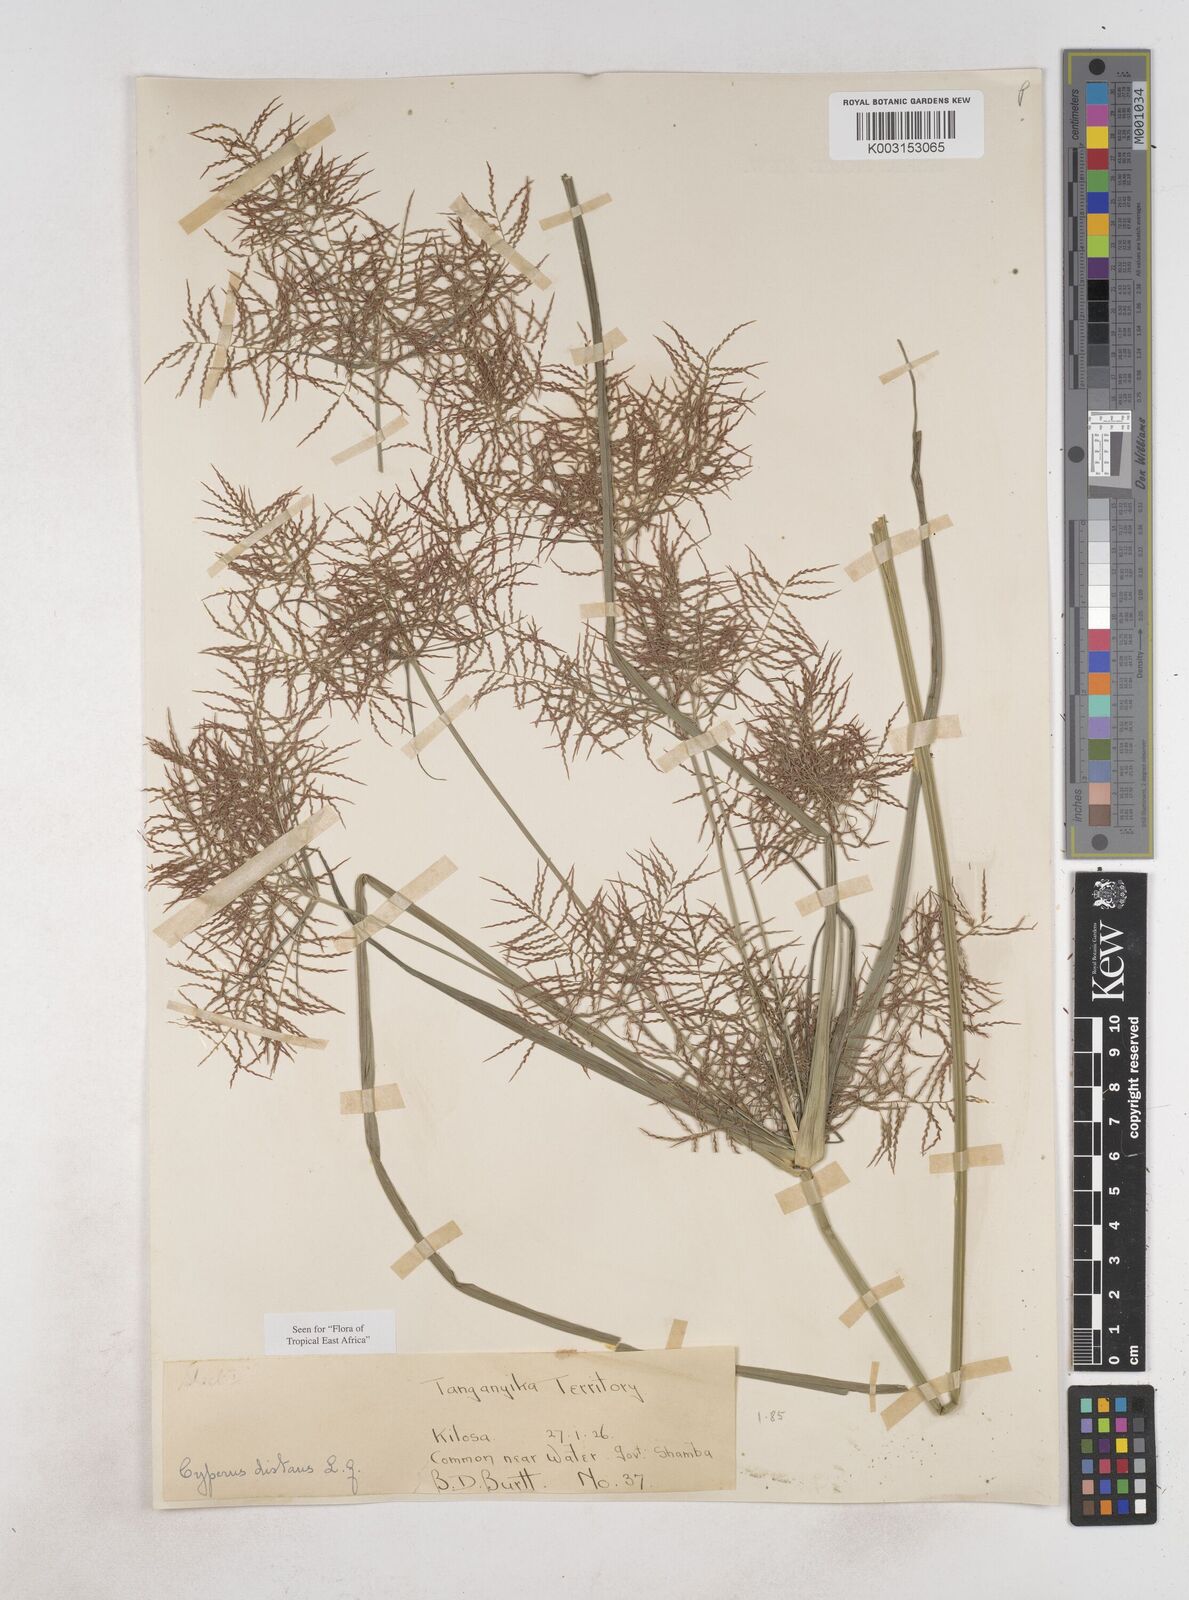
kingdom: Plantae
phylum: Tracheophyta
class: Liliopsida
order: Poales
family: Cyperaceae
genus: Cyperus
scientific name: Cyperus distans
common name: Slender cyperus
